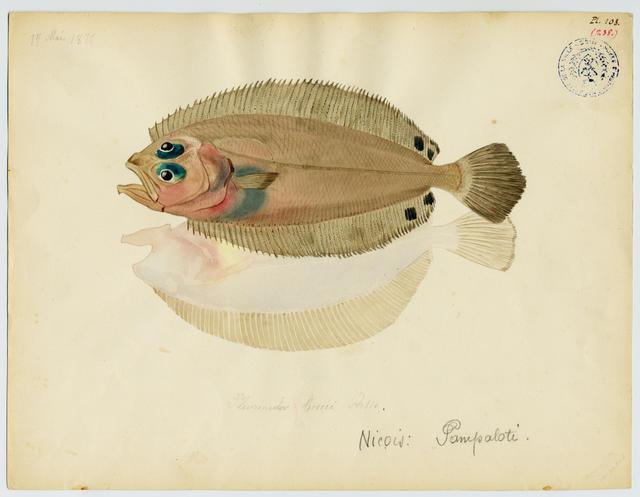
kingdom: Animalia
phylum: Chordata
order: Pleuronectiformes
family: Scophthalmidae
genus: Lepidorhombus
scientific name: Lepidorhombus boscii
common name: Megrim
